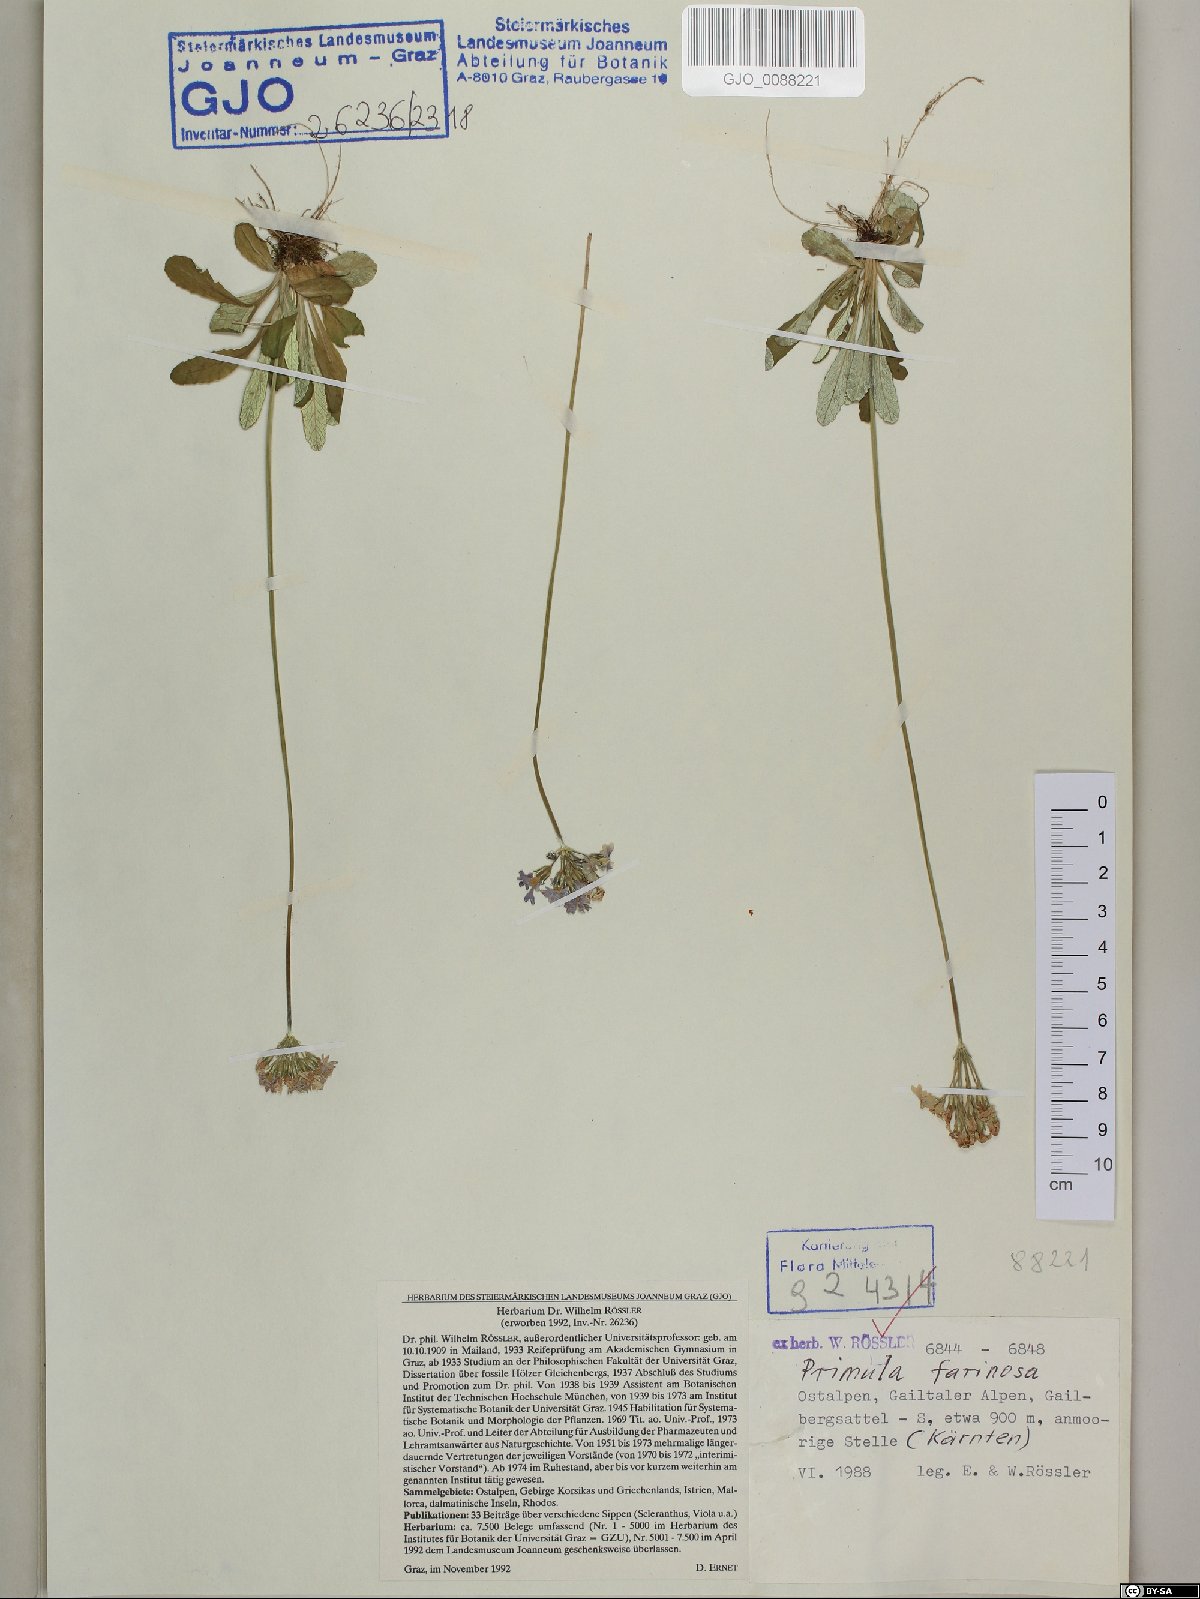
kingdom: Plantae
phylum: Tracheophyta
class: Magnoliopsida
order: Ericales
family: Primulaceae
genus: Primula
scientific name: Primula farinosa
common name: Bird's-eye primrose
